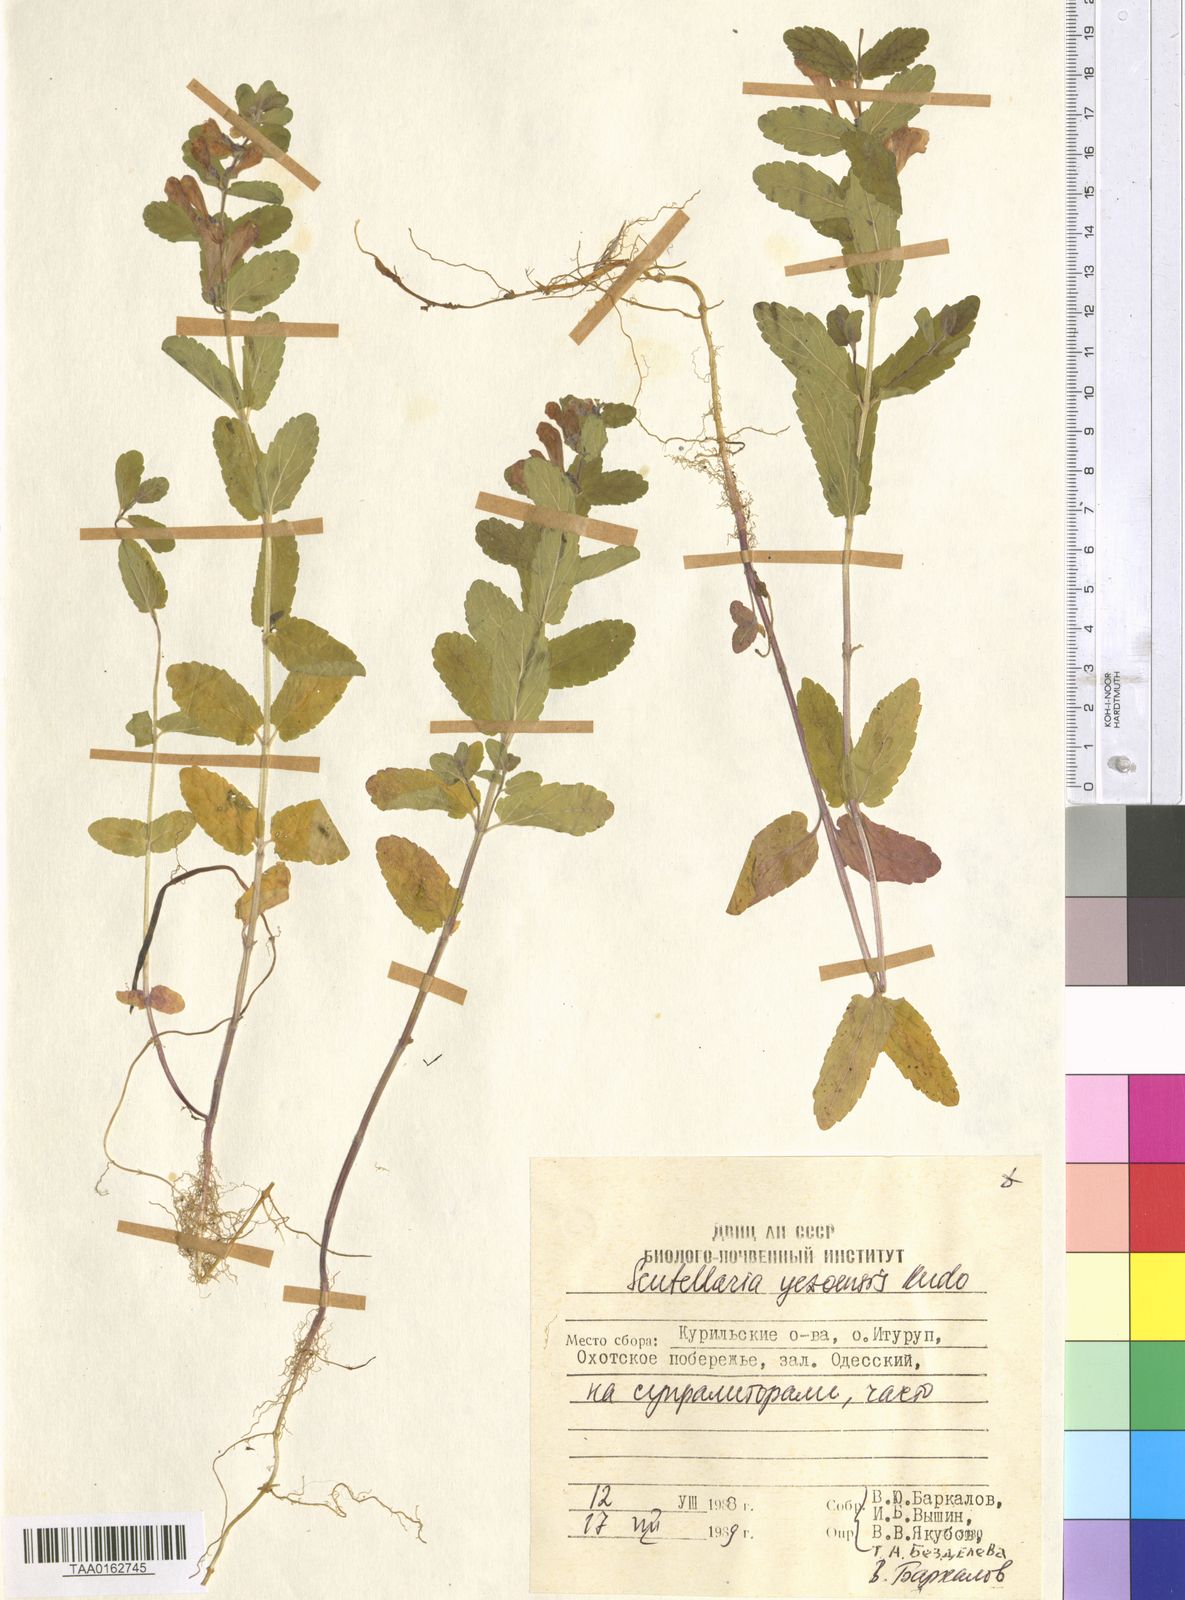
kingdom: Plantae
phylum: Tracheophyta
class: Magnoliopsida
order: Lamiales
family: Lamiaceae
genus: Scutellaria
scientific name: Scutellaria yezoensis
